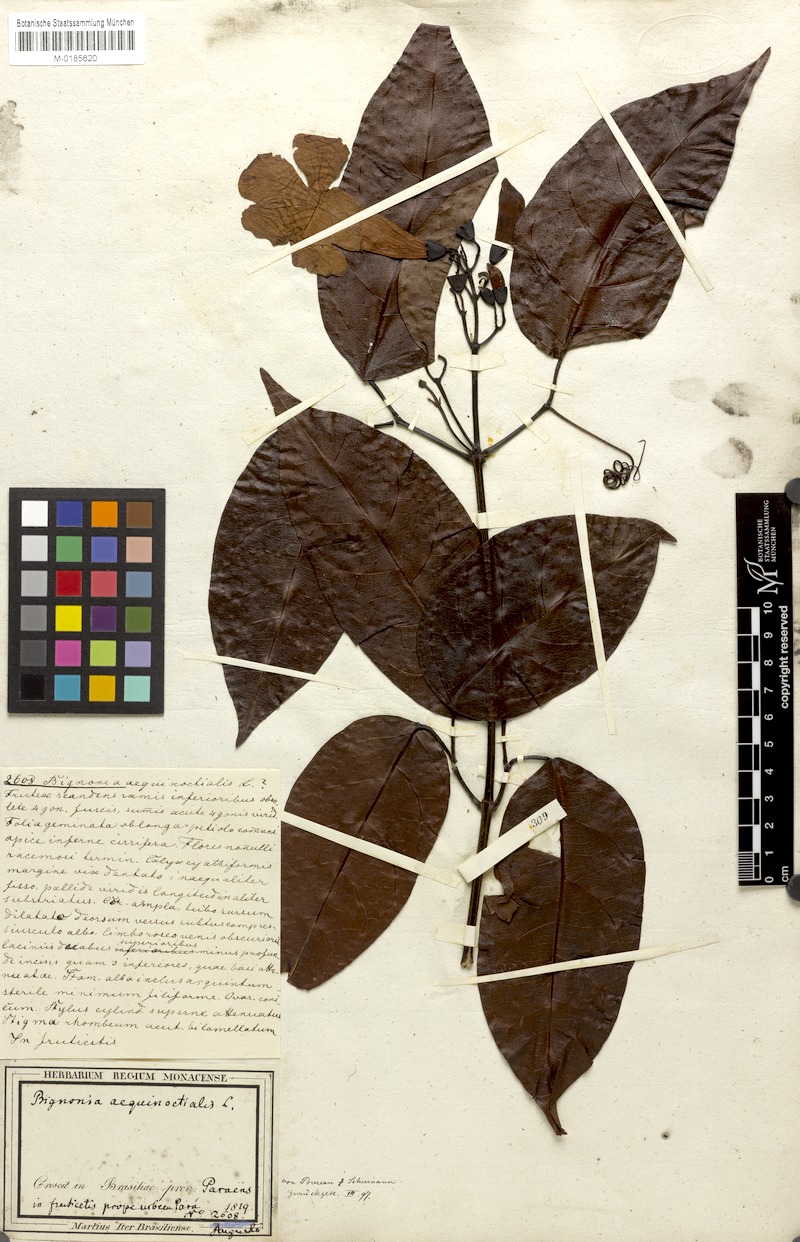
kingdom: Plantae
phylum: Tracheophyta
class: Magnoliopsida
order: Lamiales
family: Bignoniaceae
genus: Bignonia
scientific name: Bignonia aequinoctialis
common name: Garlicvine
